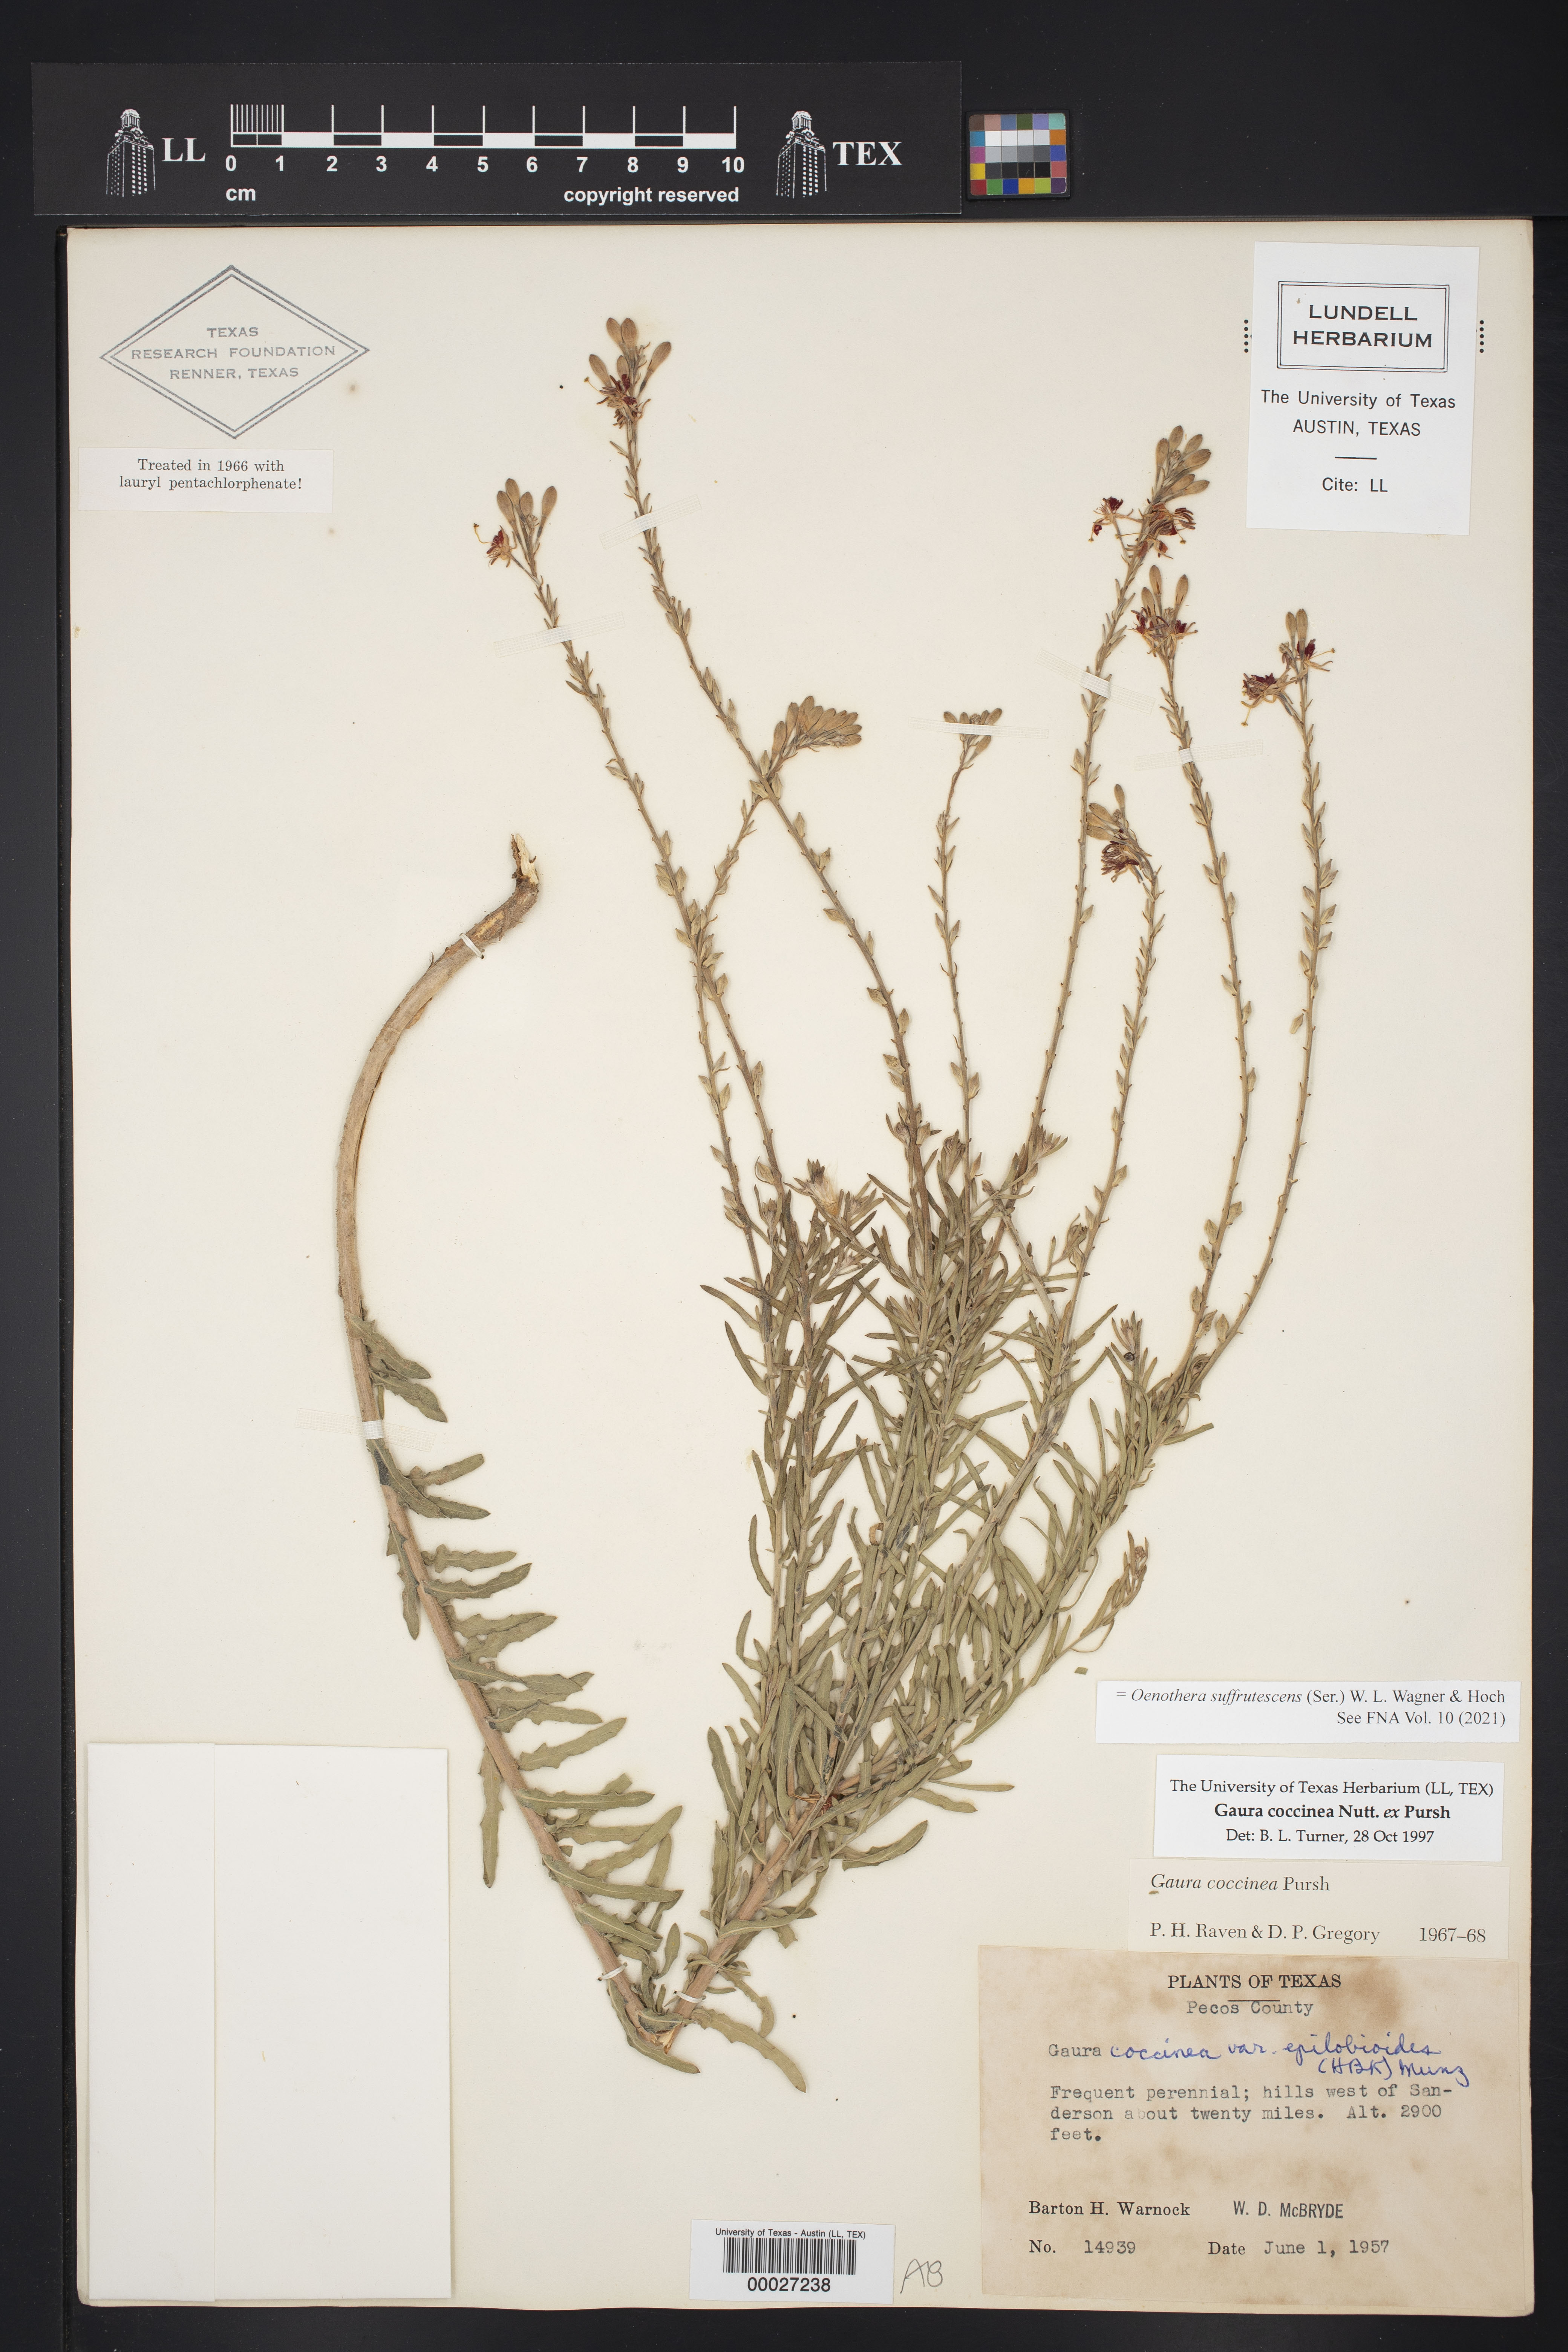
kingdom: Plantae
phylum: Tracheophyta
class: Magnoliopsida
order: Myrtales
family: Onagraceae
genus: Oenothera
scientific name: Oenothera suffrutescens
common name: Scarlet beeblossom
